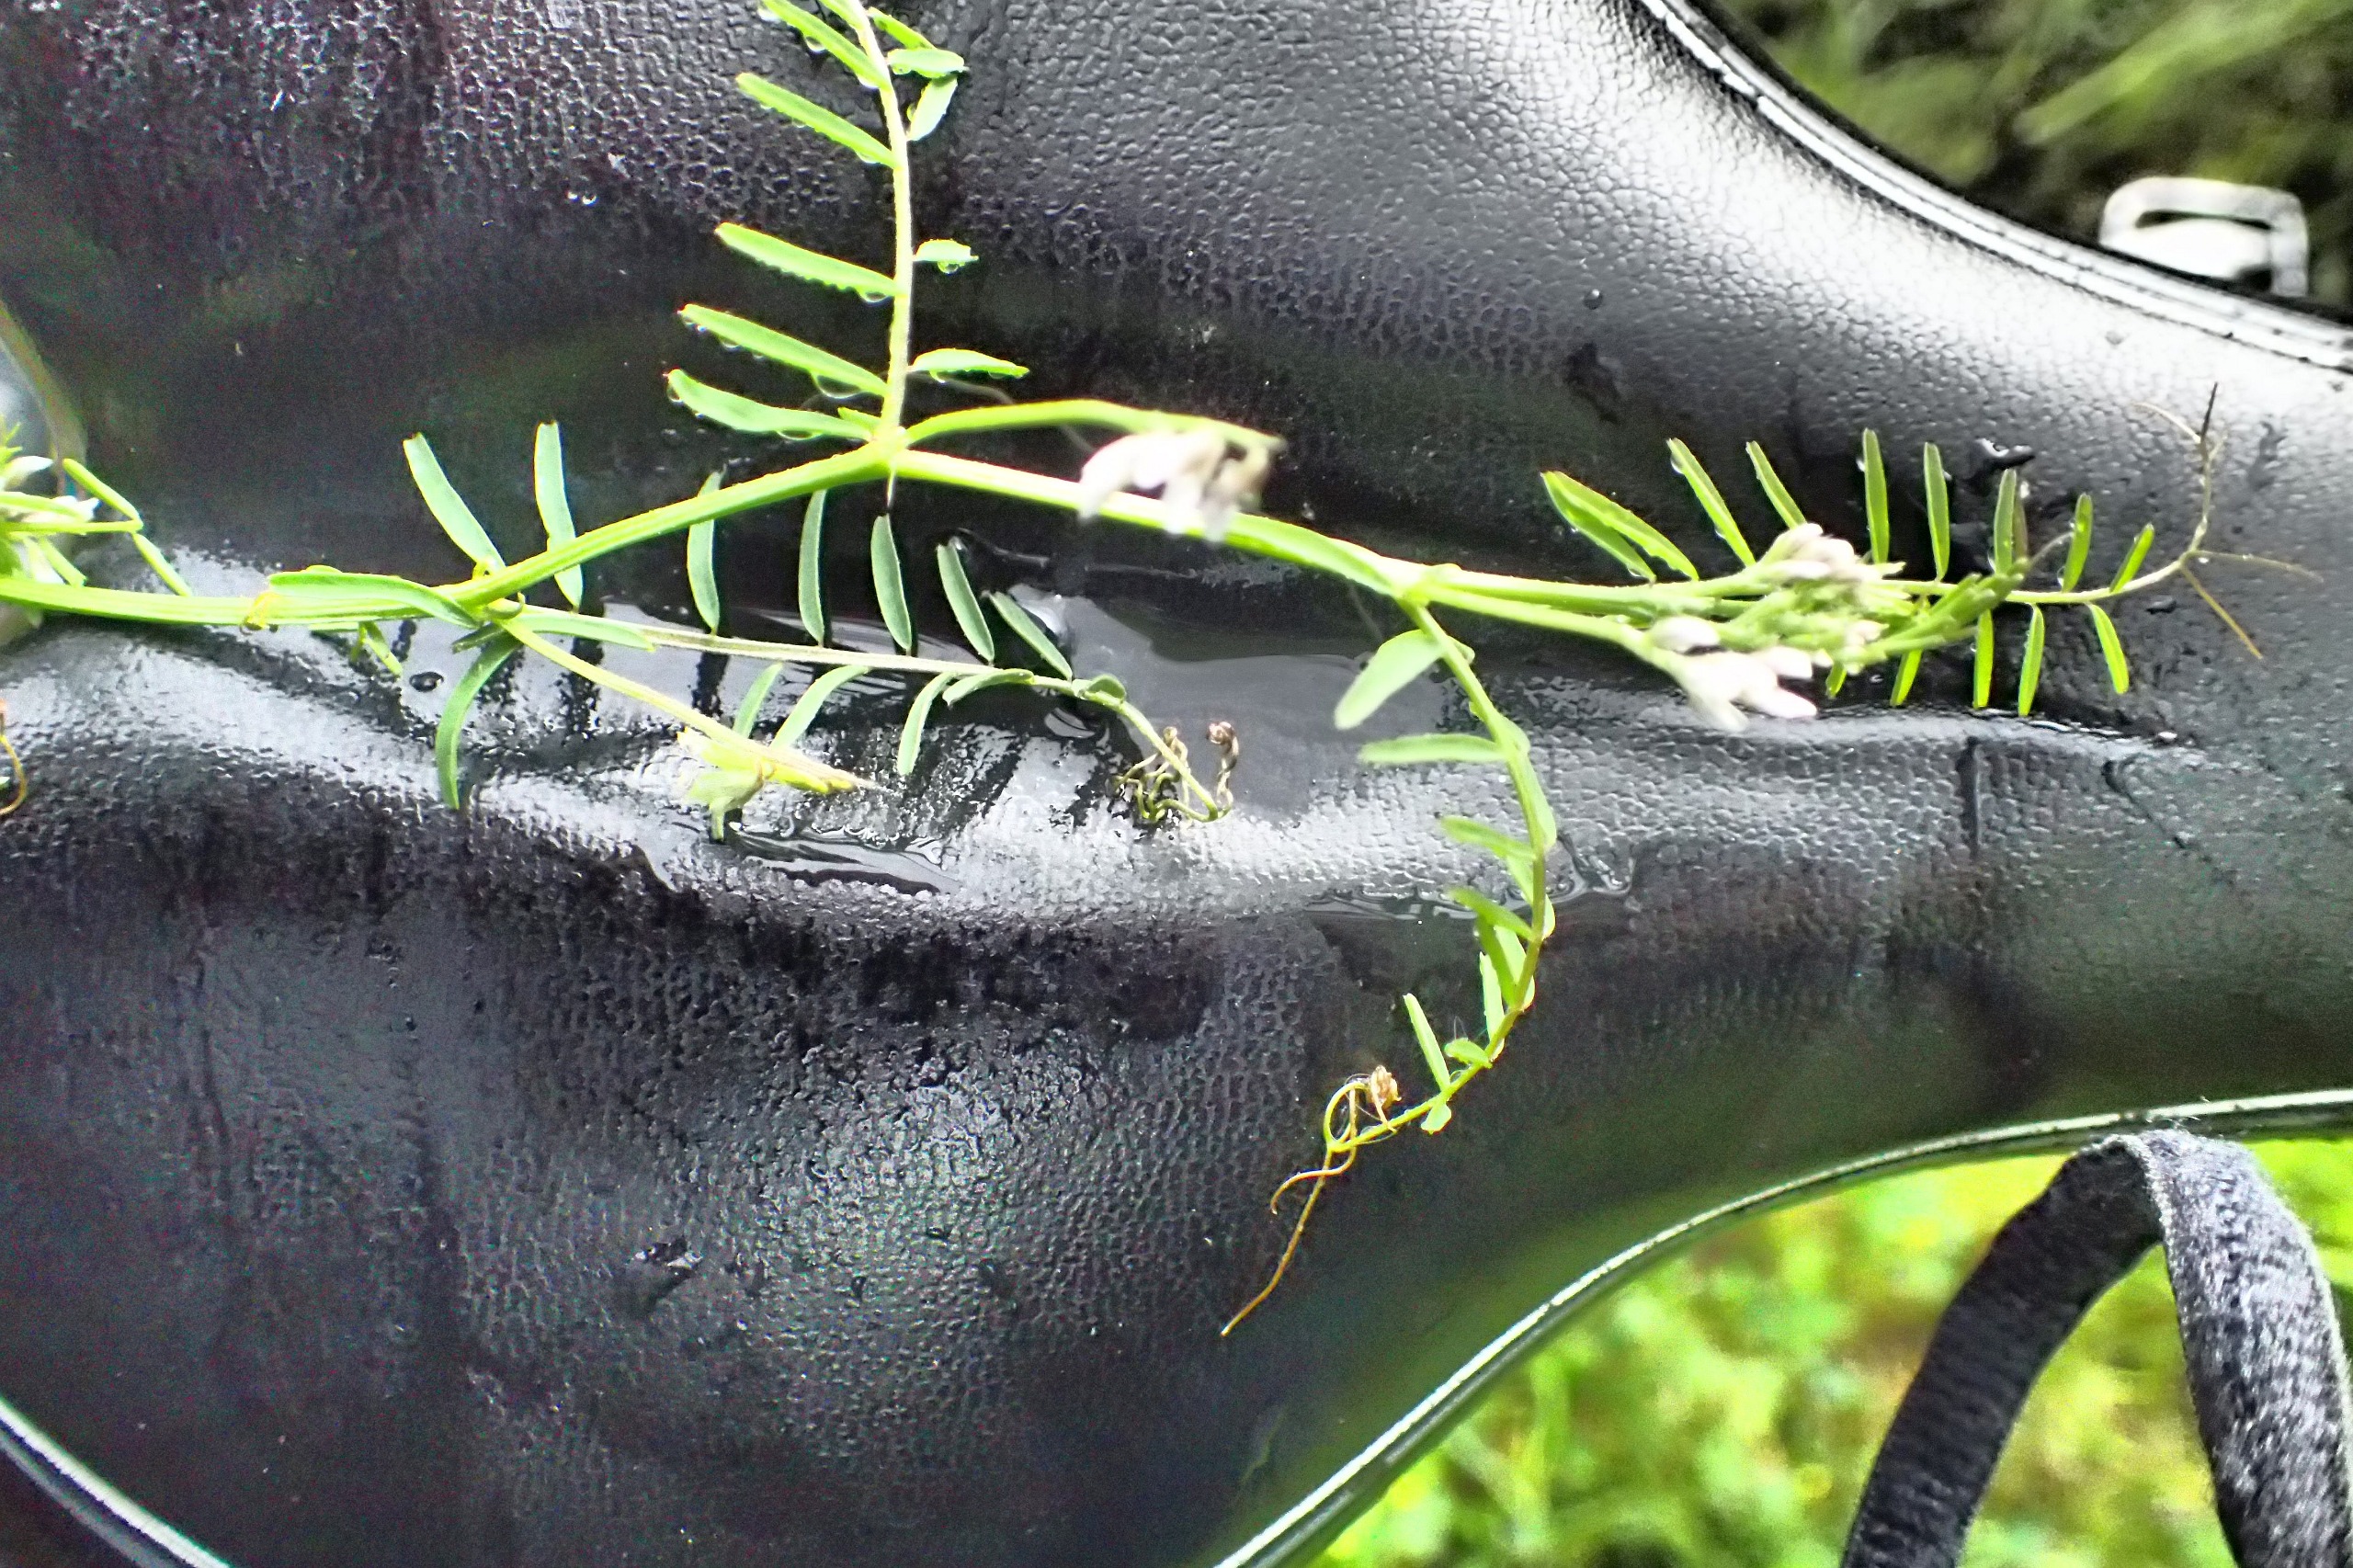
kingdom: Plantae
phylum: Tracheophyta
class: Magnoliopsida
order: Fabales
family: Fabaceae
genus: Vicia
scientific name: Vicia hirsuta
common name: Tofrøet vikke
